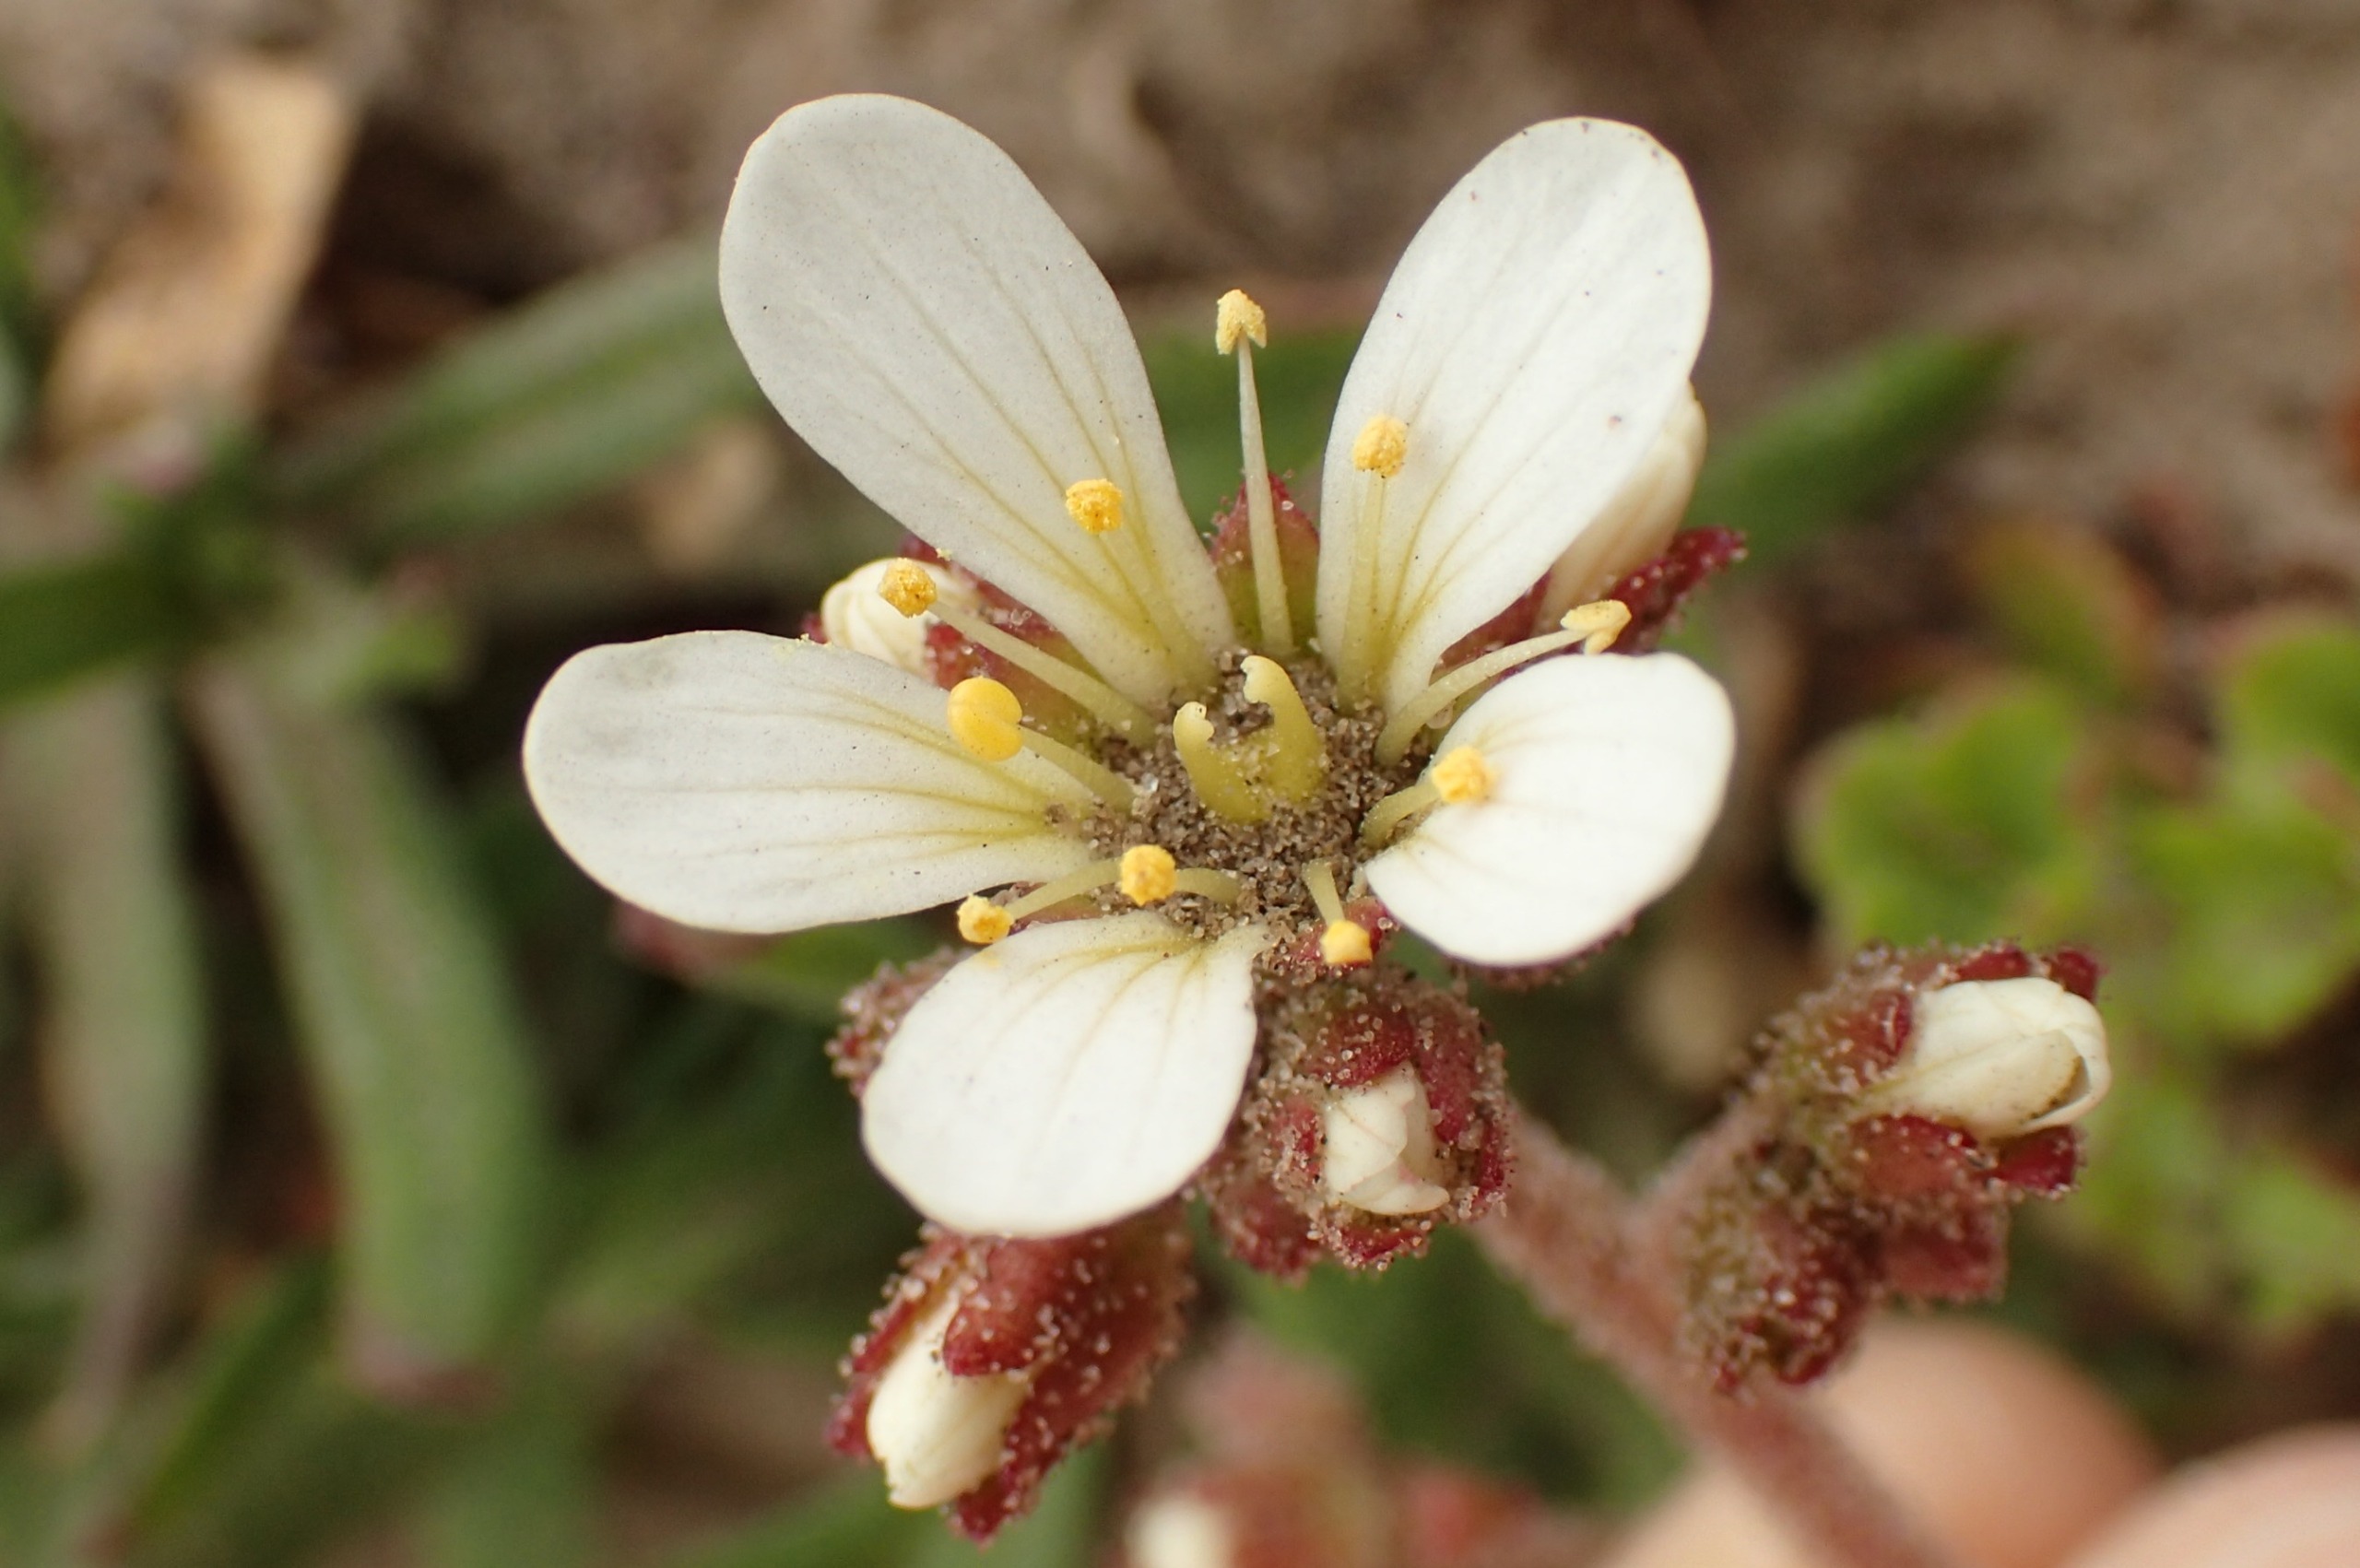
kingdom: Plantae
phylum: Tracheophyta
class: Magnoliopsida
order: Saxifragales
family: Saxifragaceae
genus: Saxifraga
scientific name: Saxifraga granulata
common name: Kornet stenbræk
